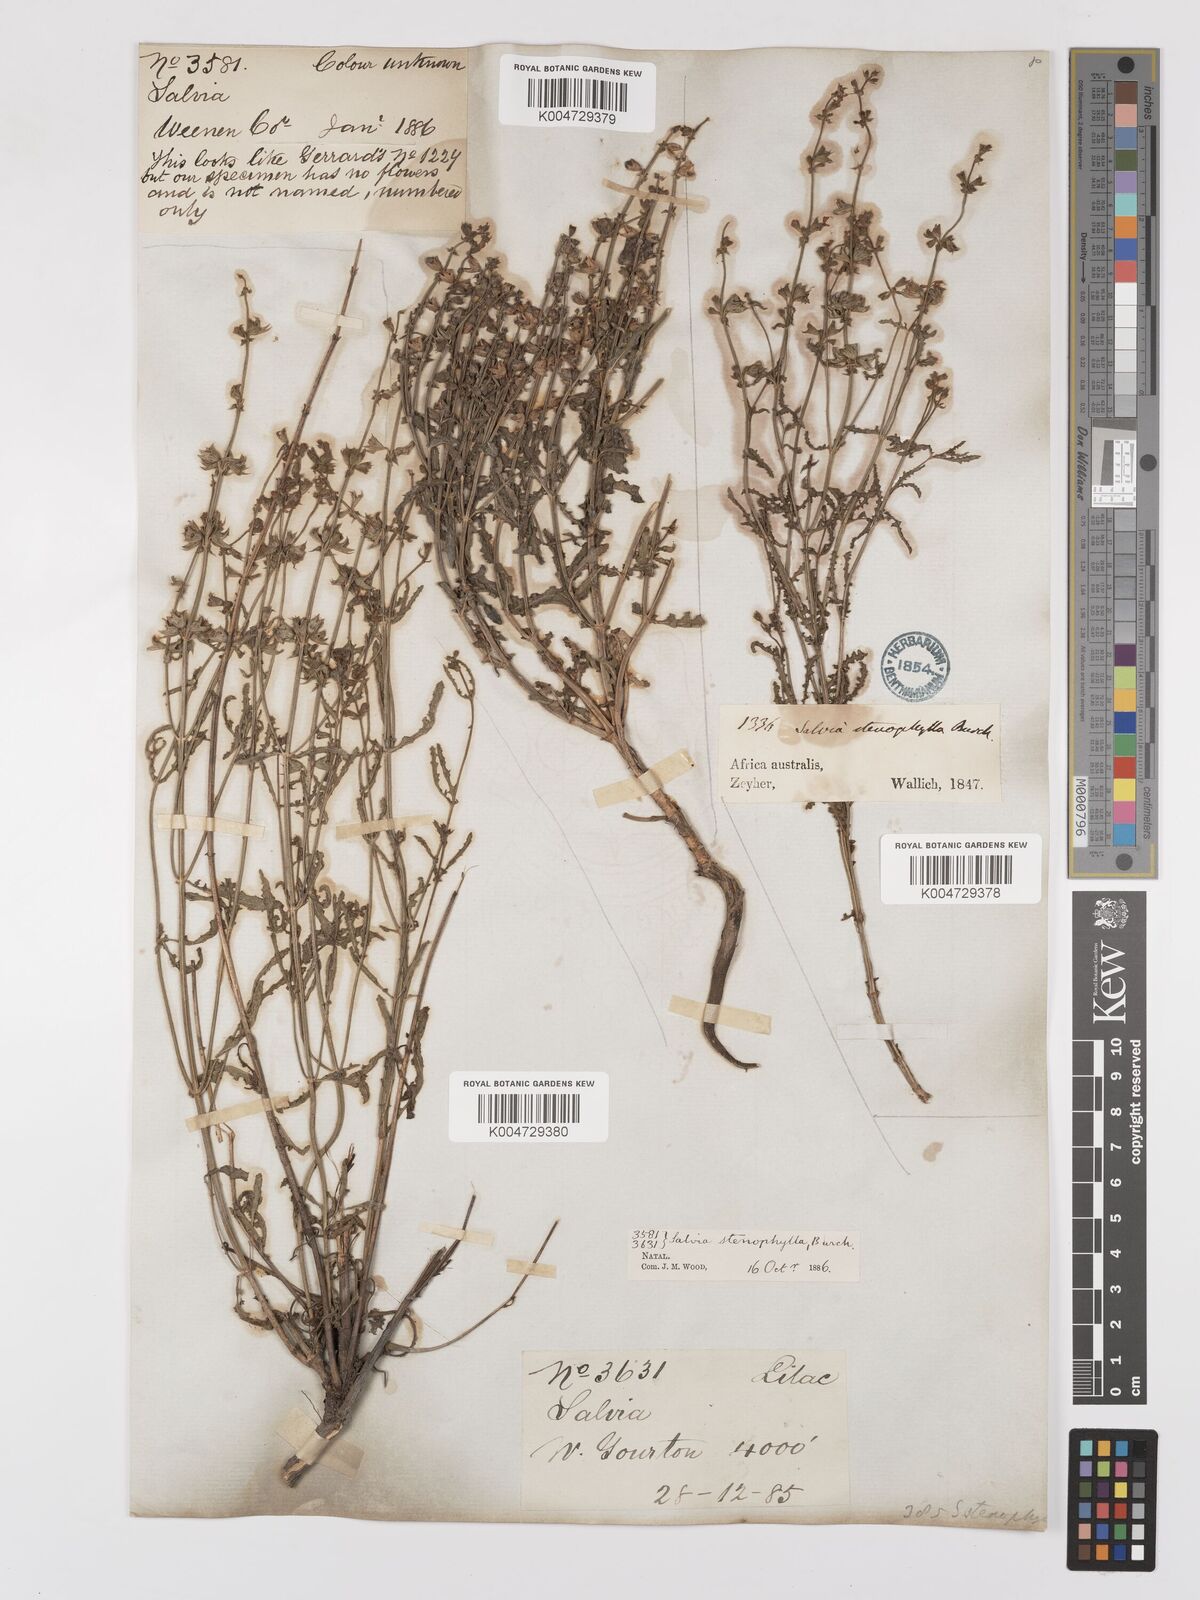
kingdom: Plantae
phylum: Tracheophyta
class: Magnoliopsida
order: Lamiales
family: Lamiaceae
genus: Salvia
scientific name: Salvia stenophylla
